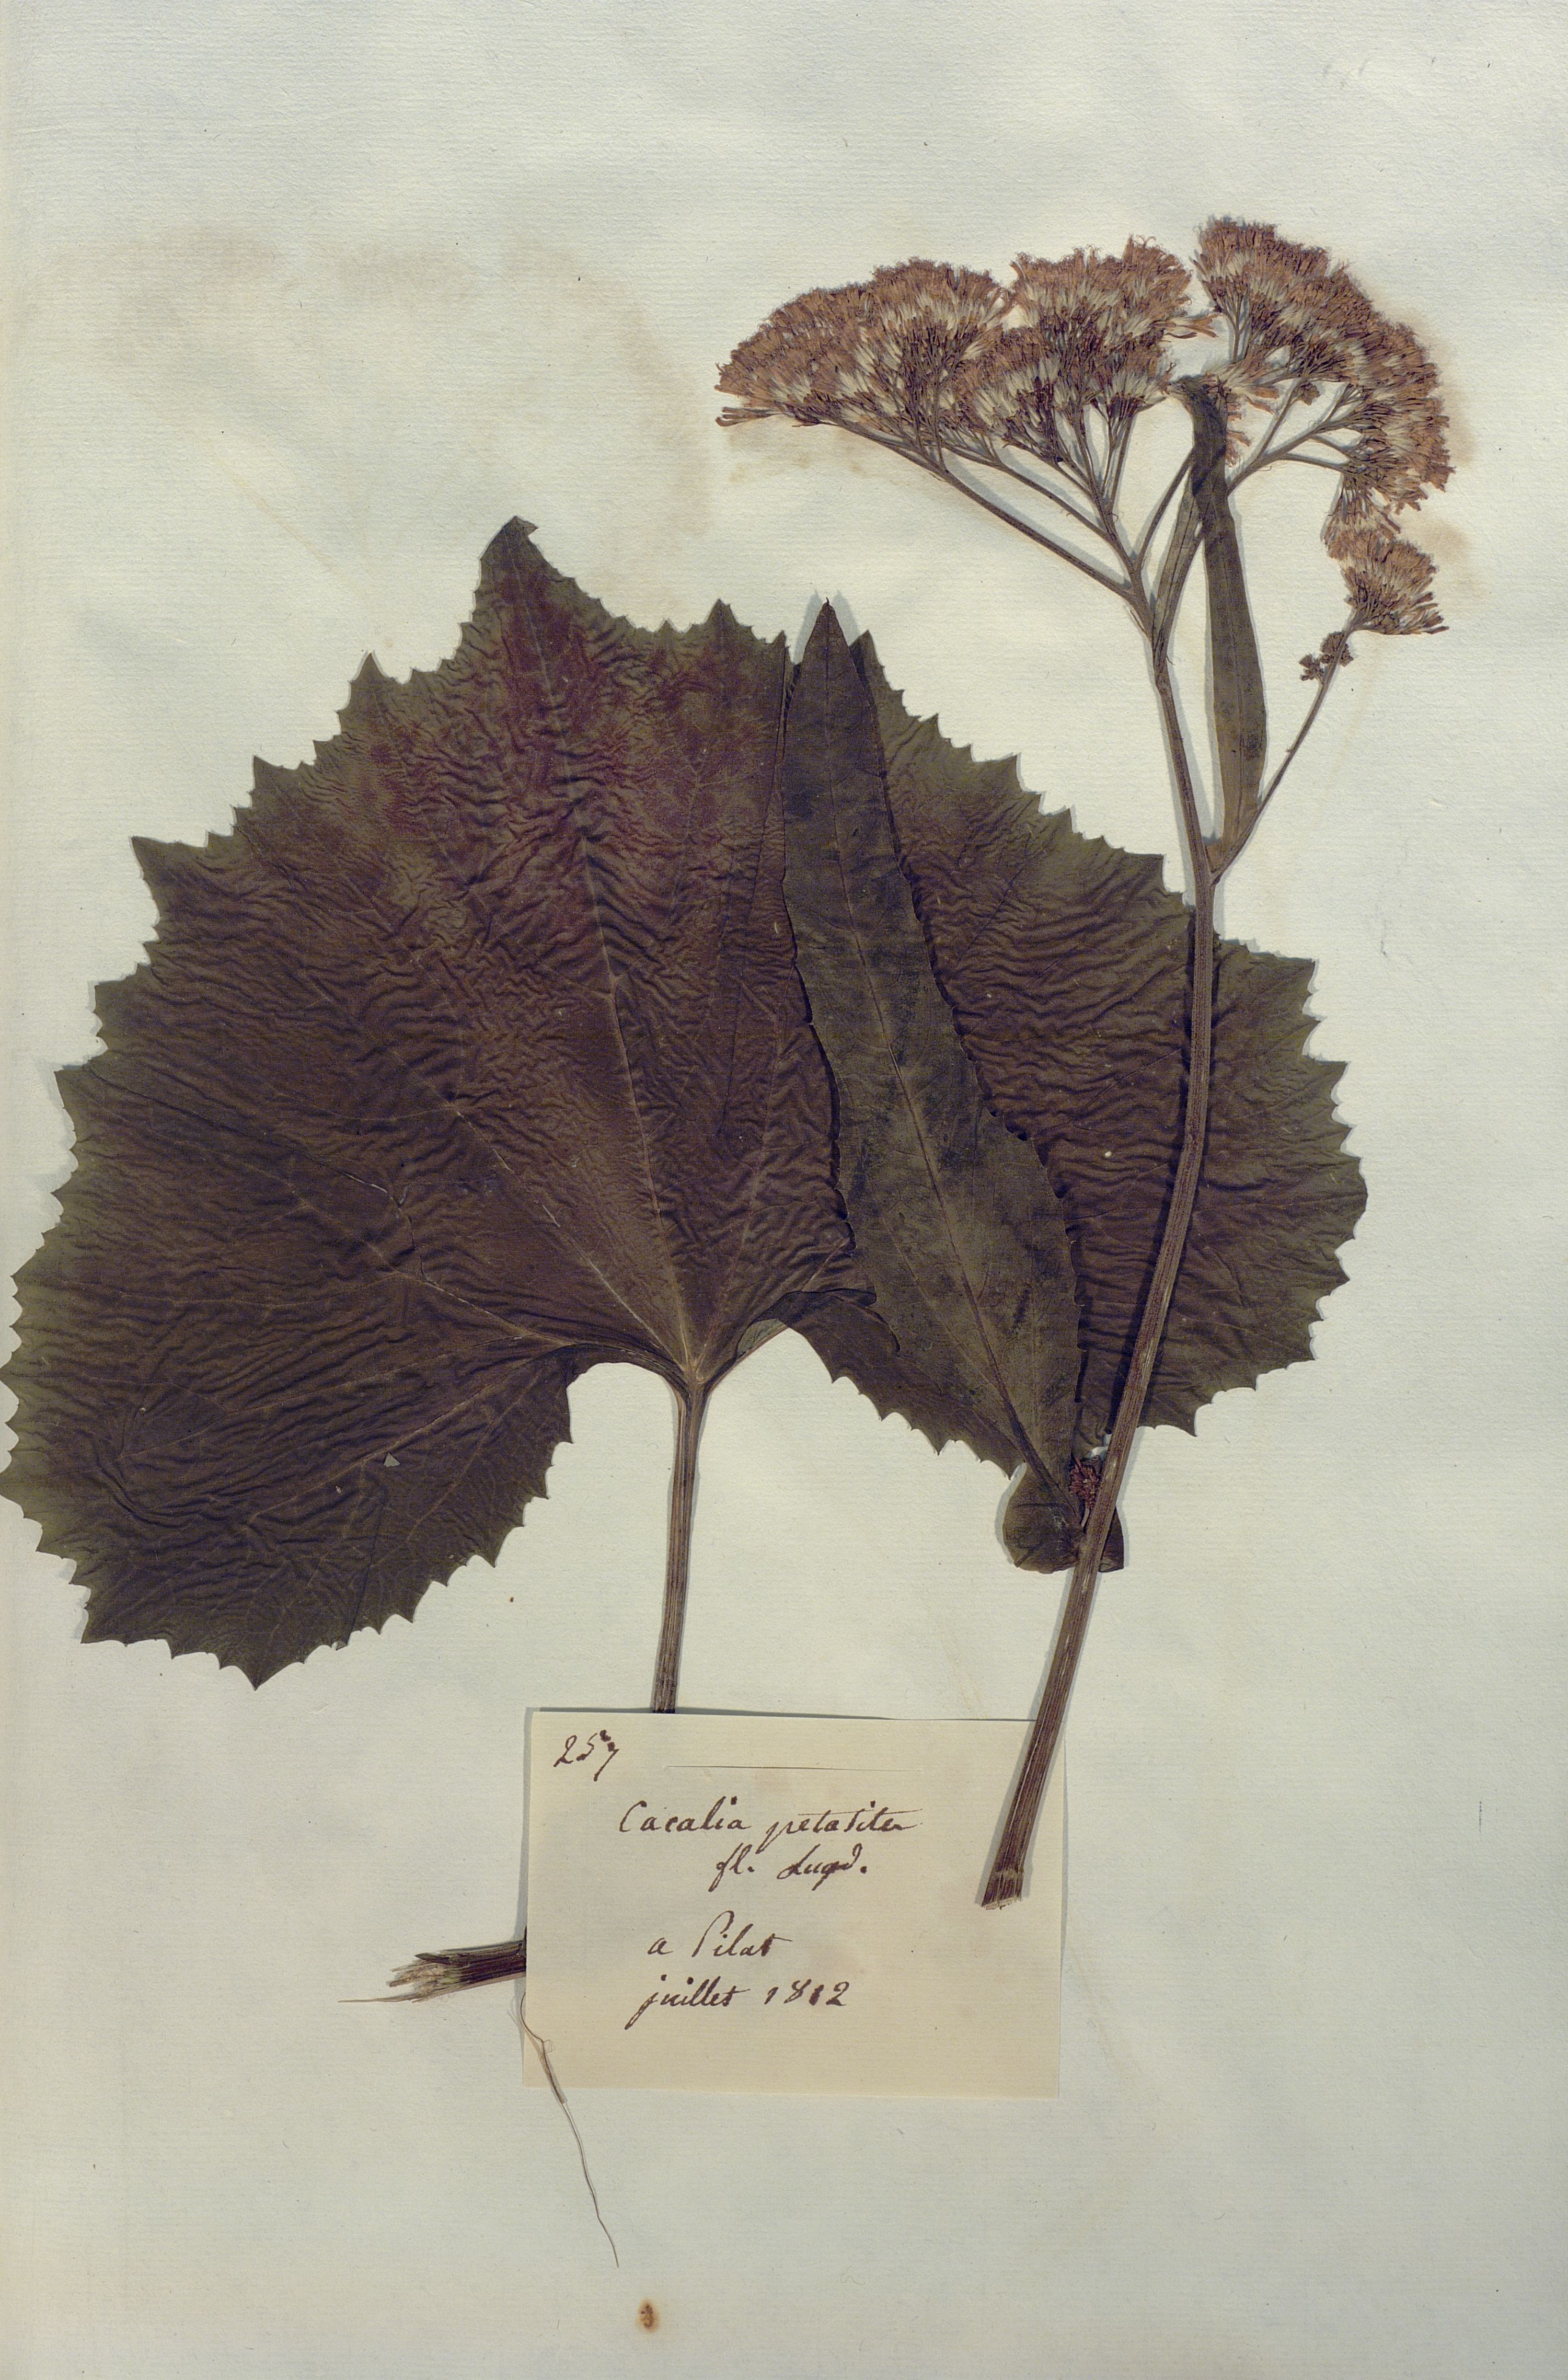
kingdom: Plantae
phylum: Tracheophyta
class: Magnoliopsida
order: Asterales
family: Asteraceae
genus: Adenostyles
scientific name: Adenostyles alliariae
